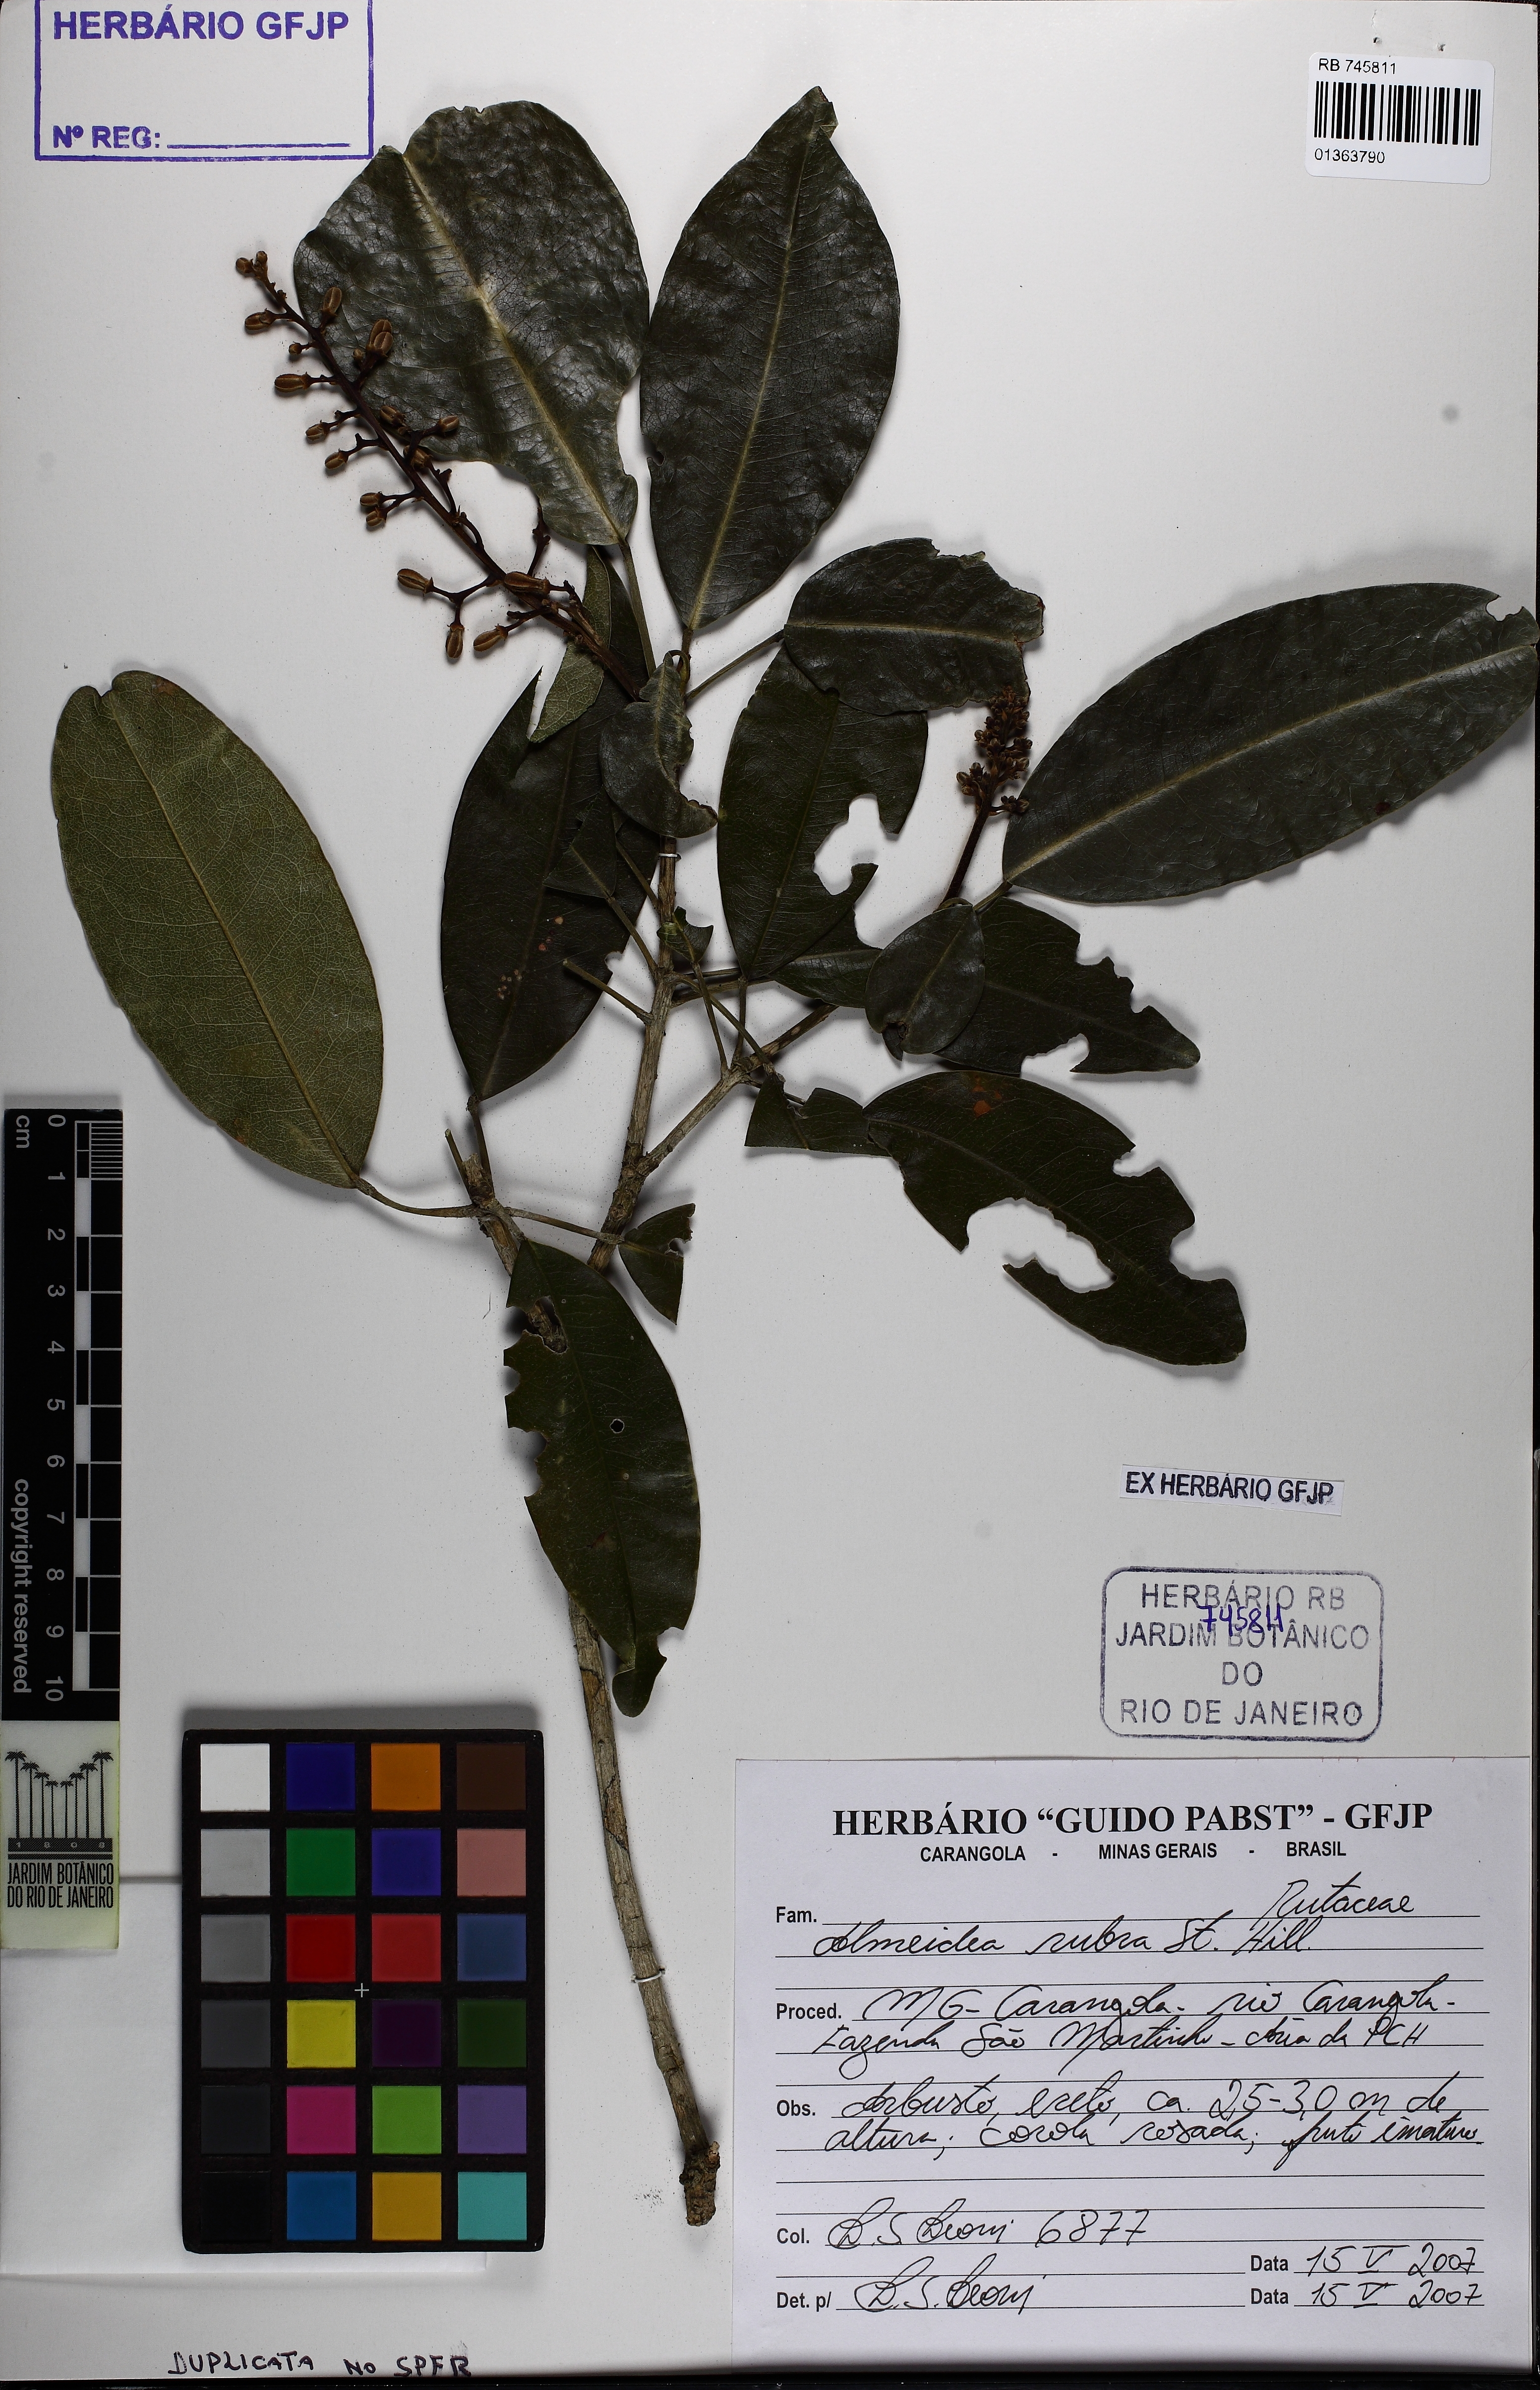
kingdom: Plantae
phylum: Tracheophyta
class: Magnoliopsida
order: Sapindales
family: Rutaceae
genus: Conchocarpus
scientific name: Conchocarpus ruber
